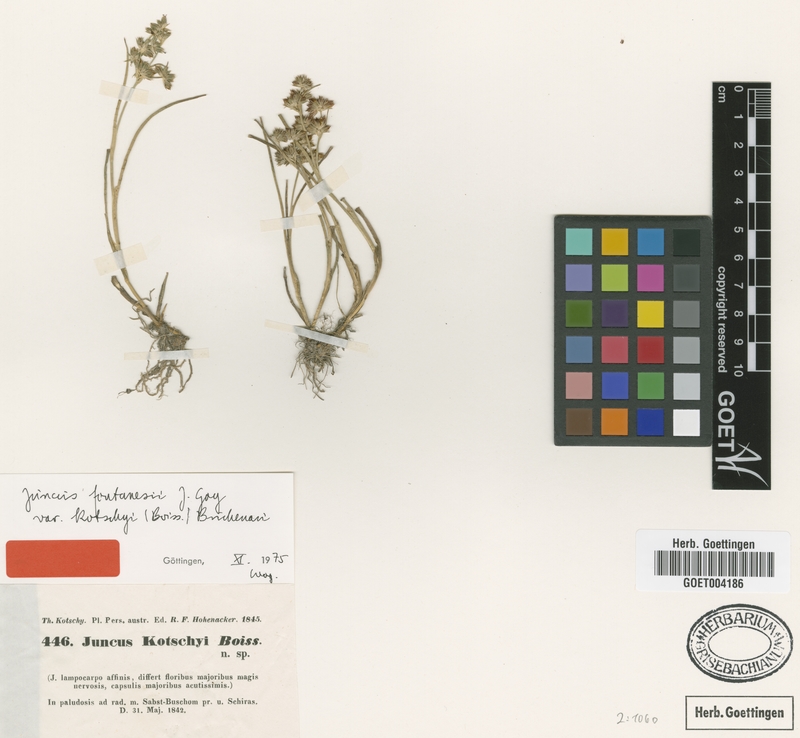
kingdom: Plantae
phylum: Tracheophyta
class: Liliopsida
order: Poales
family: Juncaceae
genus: Juncus
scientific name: Juncus fontanesii
